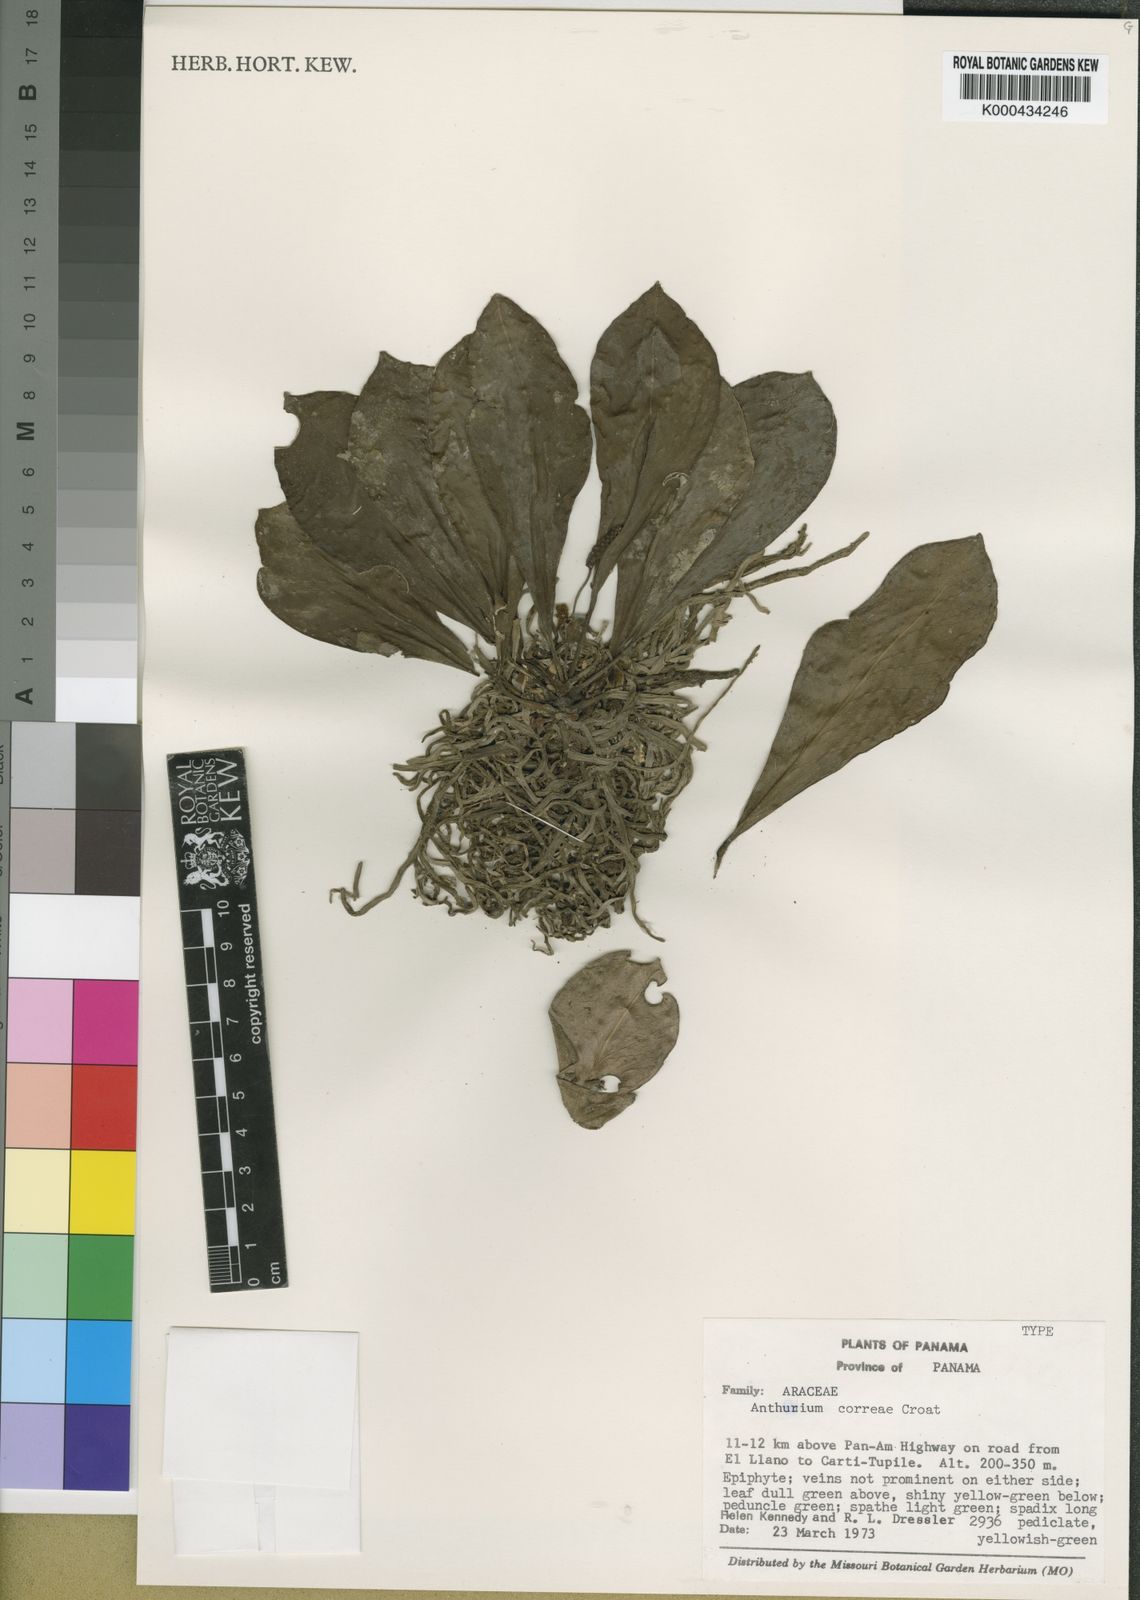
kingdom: Plantae
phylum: Tracheophyta
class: Liliopsida
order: Alismatales
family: Araceae
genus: Anthurium
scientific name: Anthurium correae
